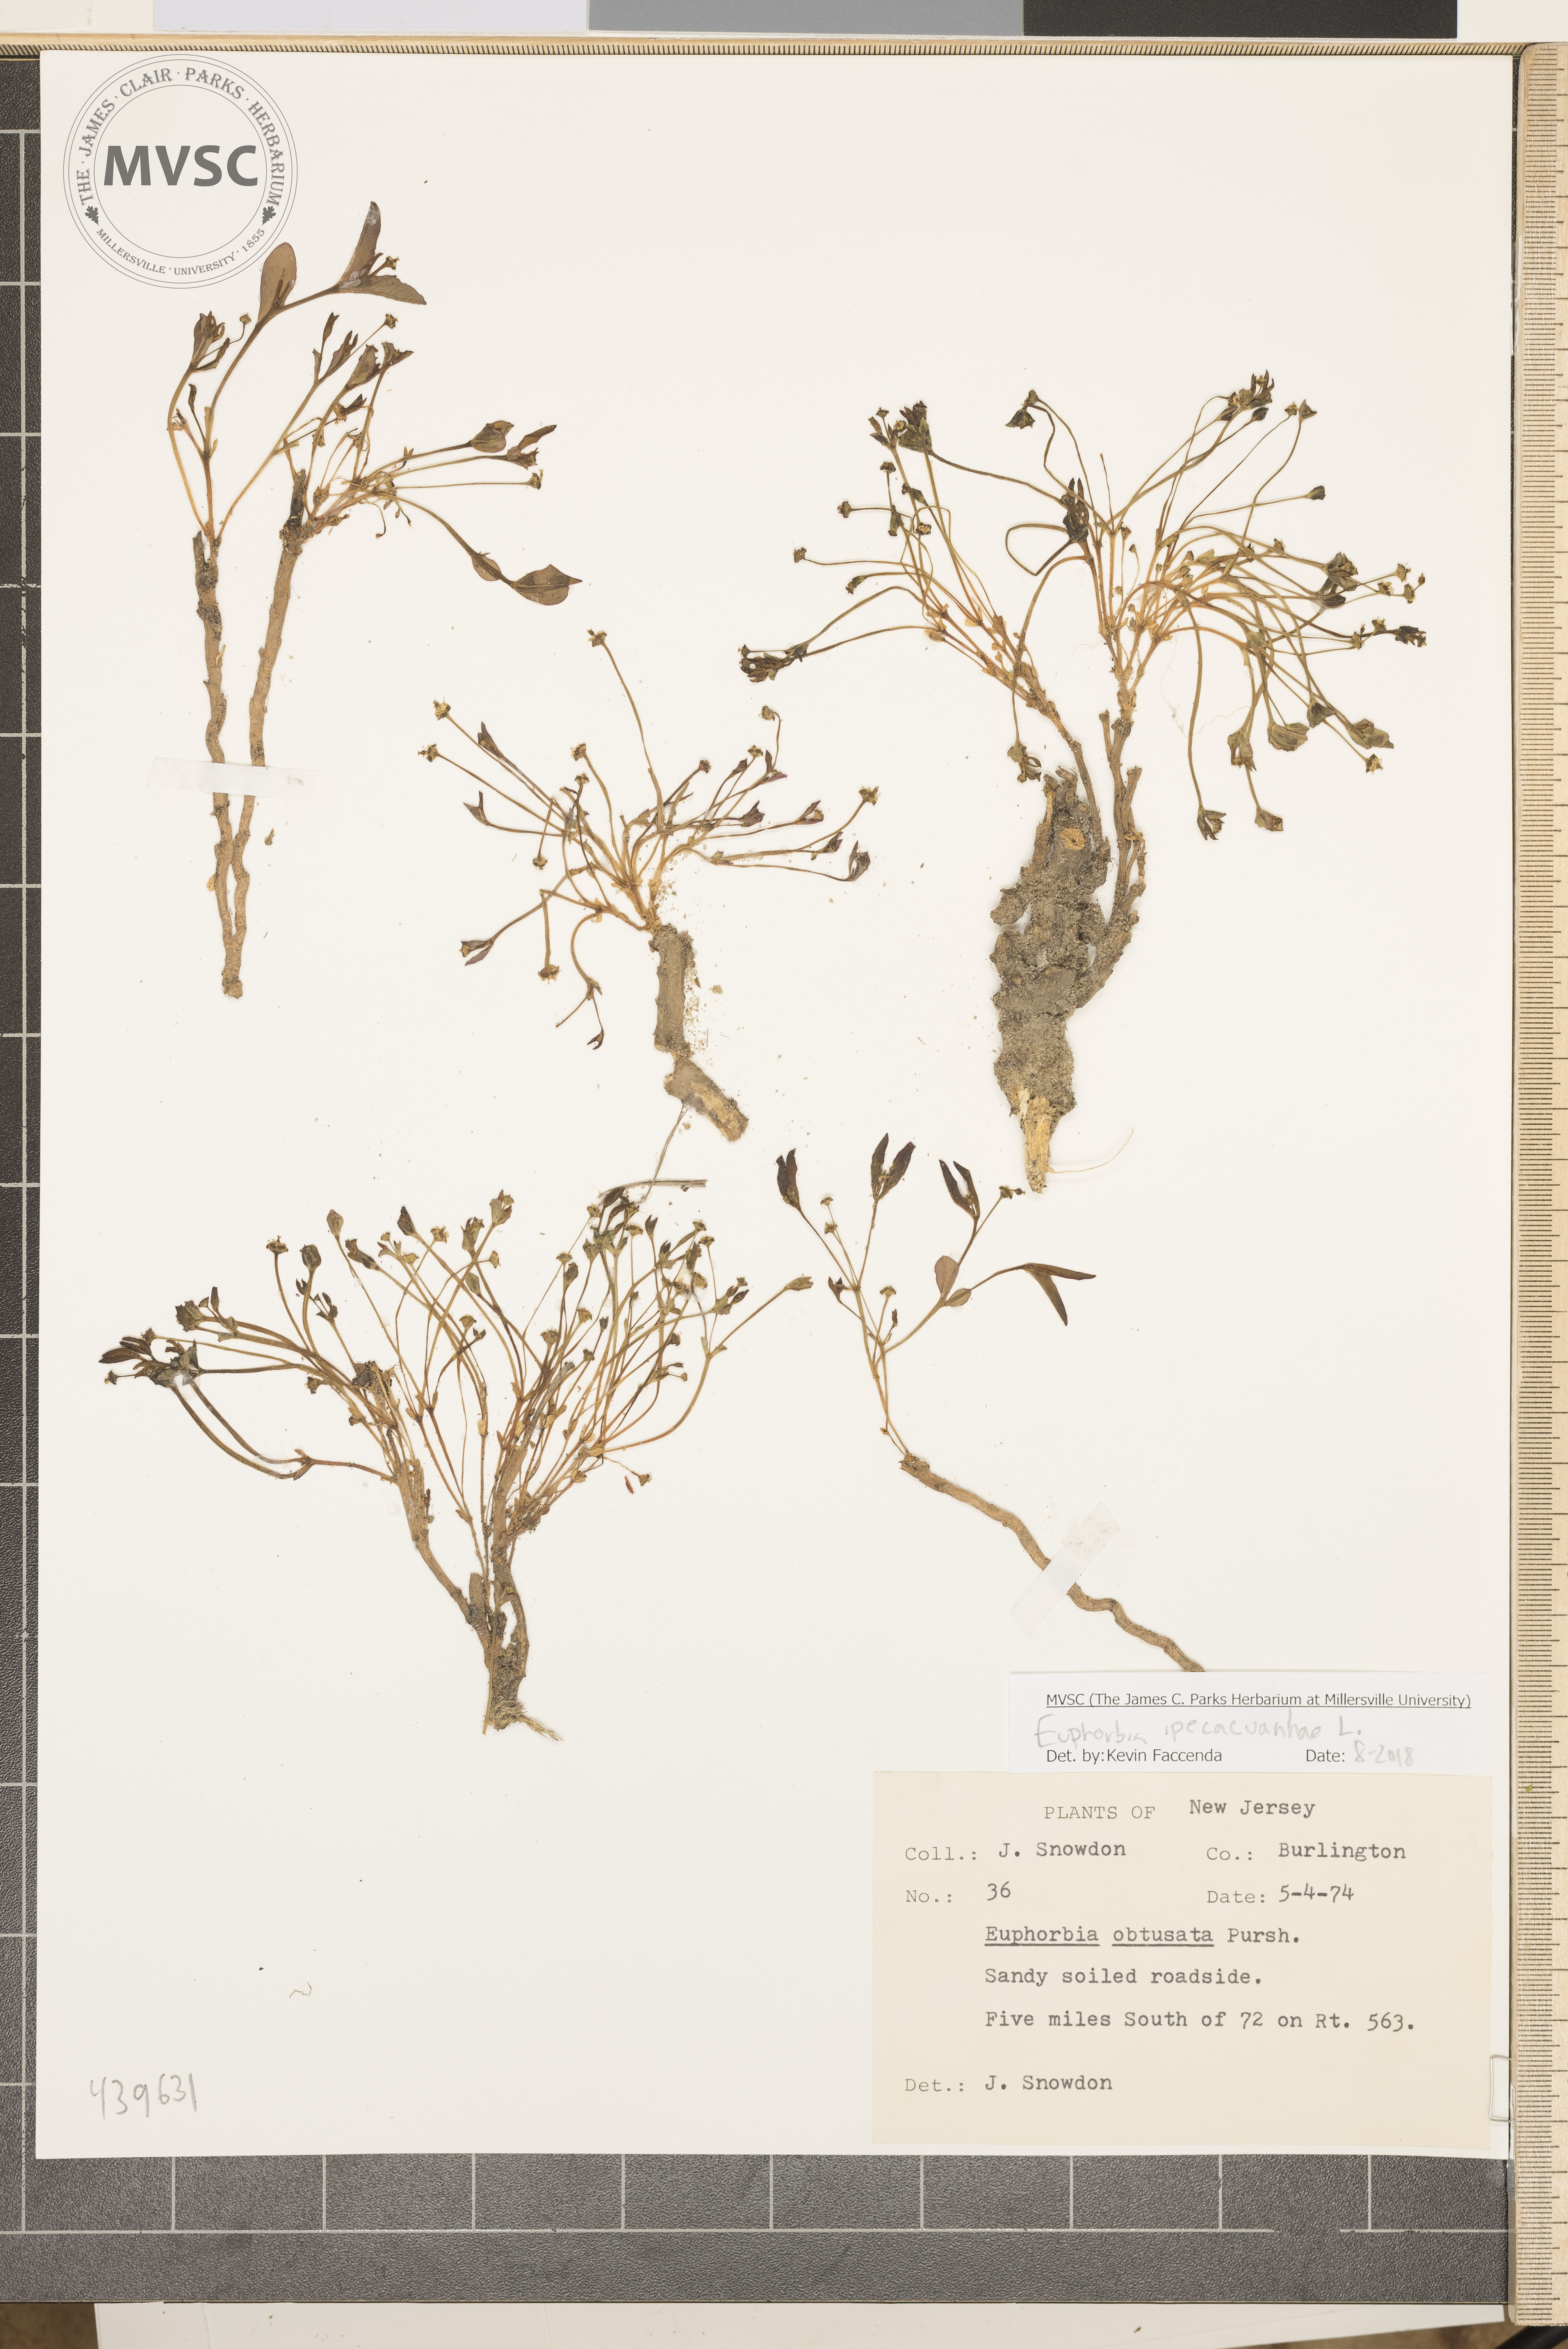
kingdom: Plantae
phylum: Tracheophyta
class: Magnoliopsida
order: Malpighiales
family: Euphorbiaceae
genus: Euphorbia
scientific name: Euphorbia ipecacuanhae
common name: Carolina ipecac
